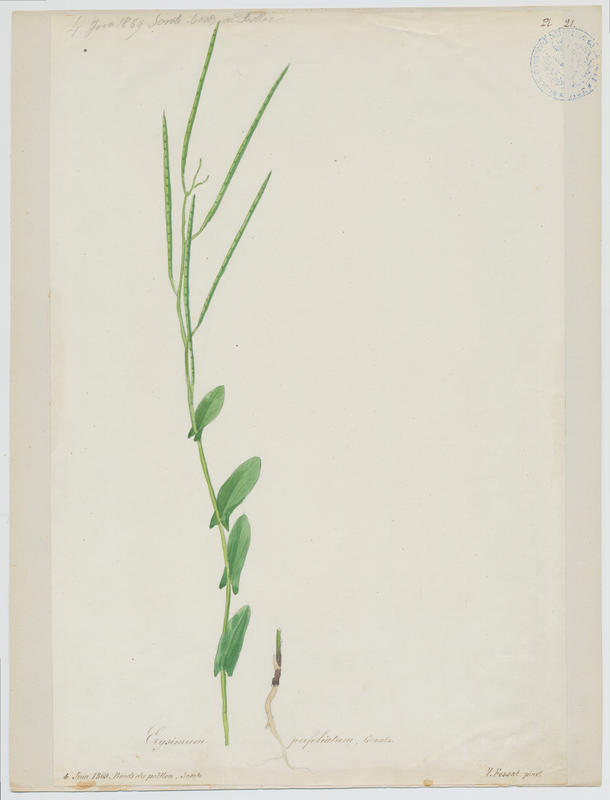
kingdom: Plantae
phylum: Tracheophyta
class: Magnoliopsida
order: Brassicales
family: Brassicaceae
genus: Conringia
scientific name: Conringia orientalis
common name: Hare's ear mustard
